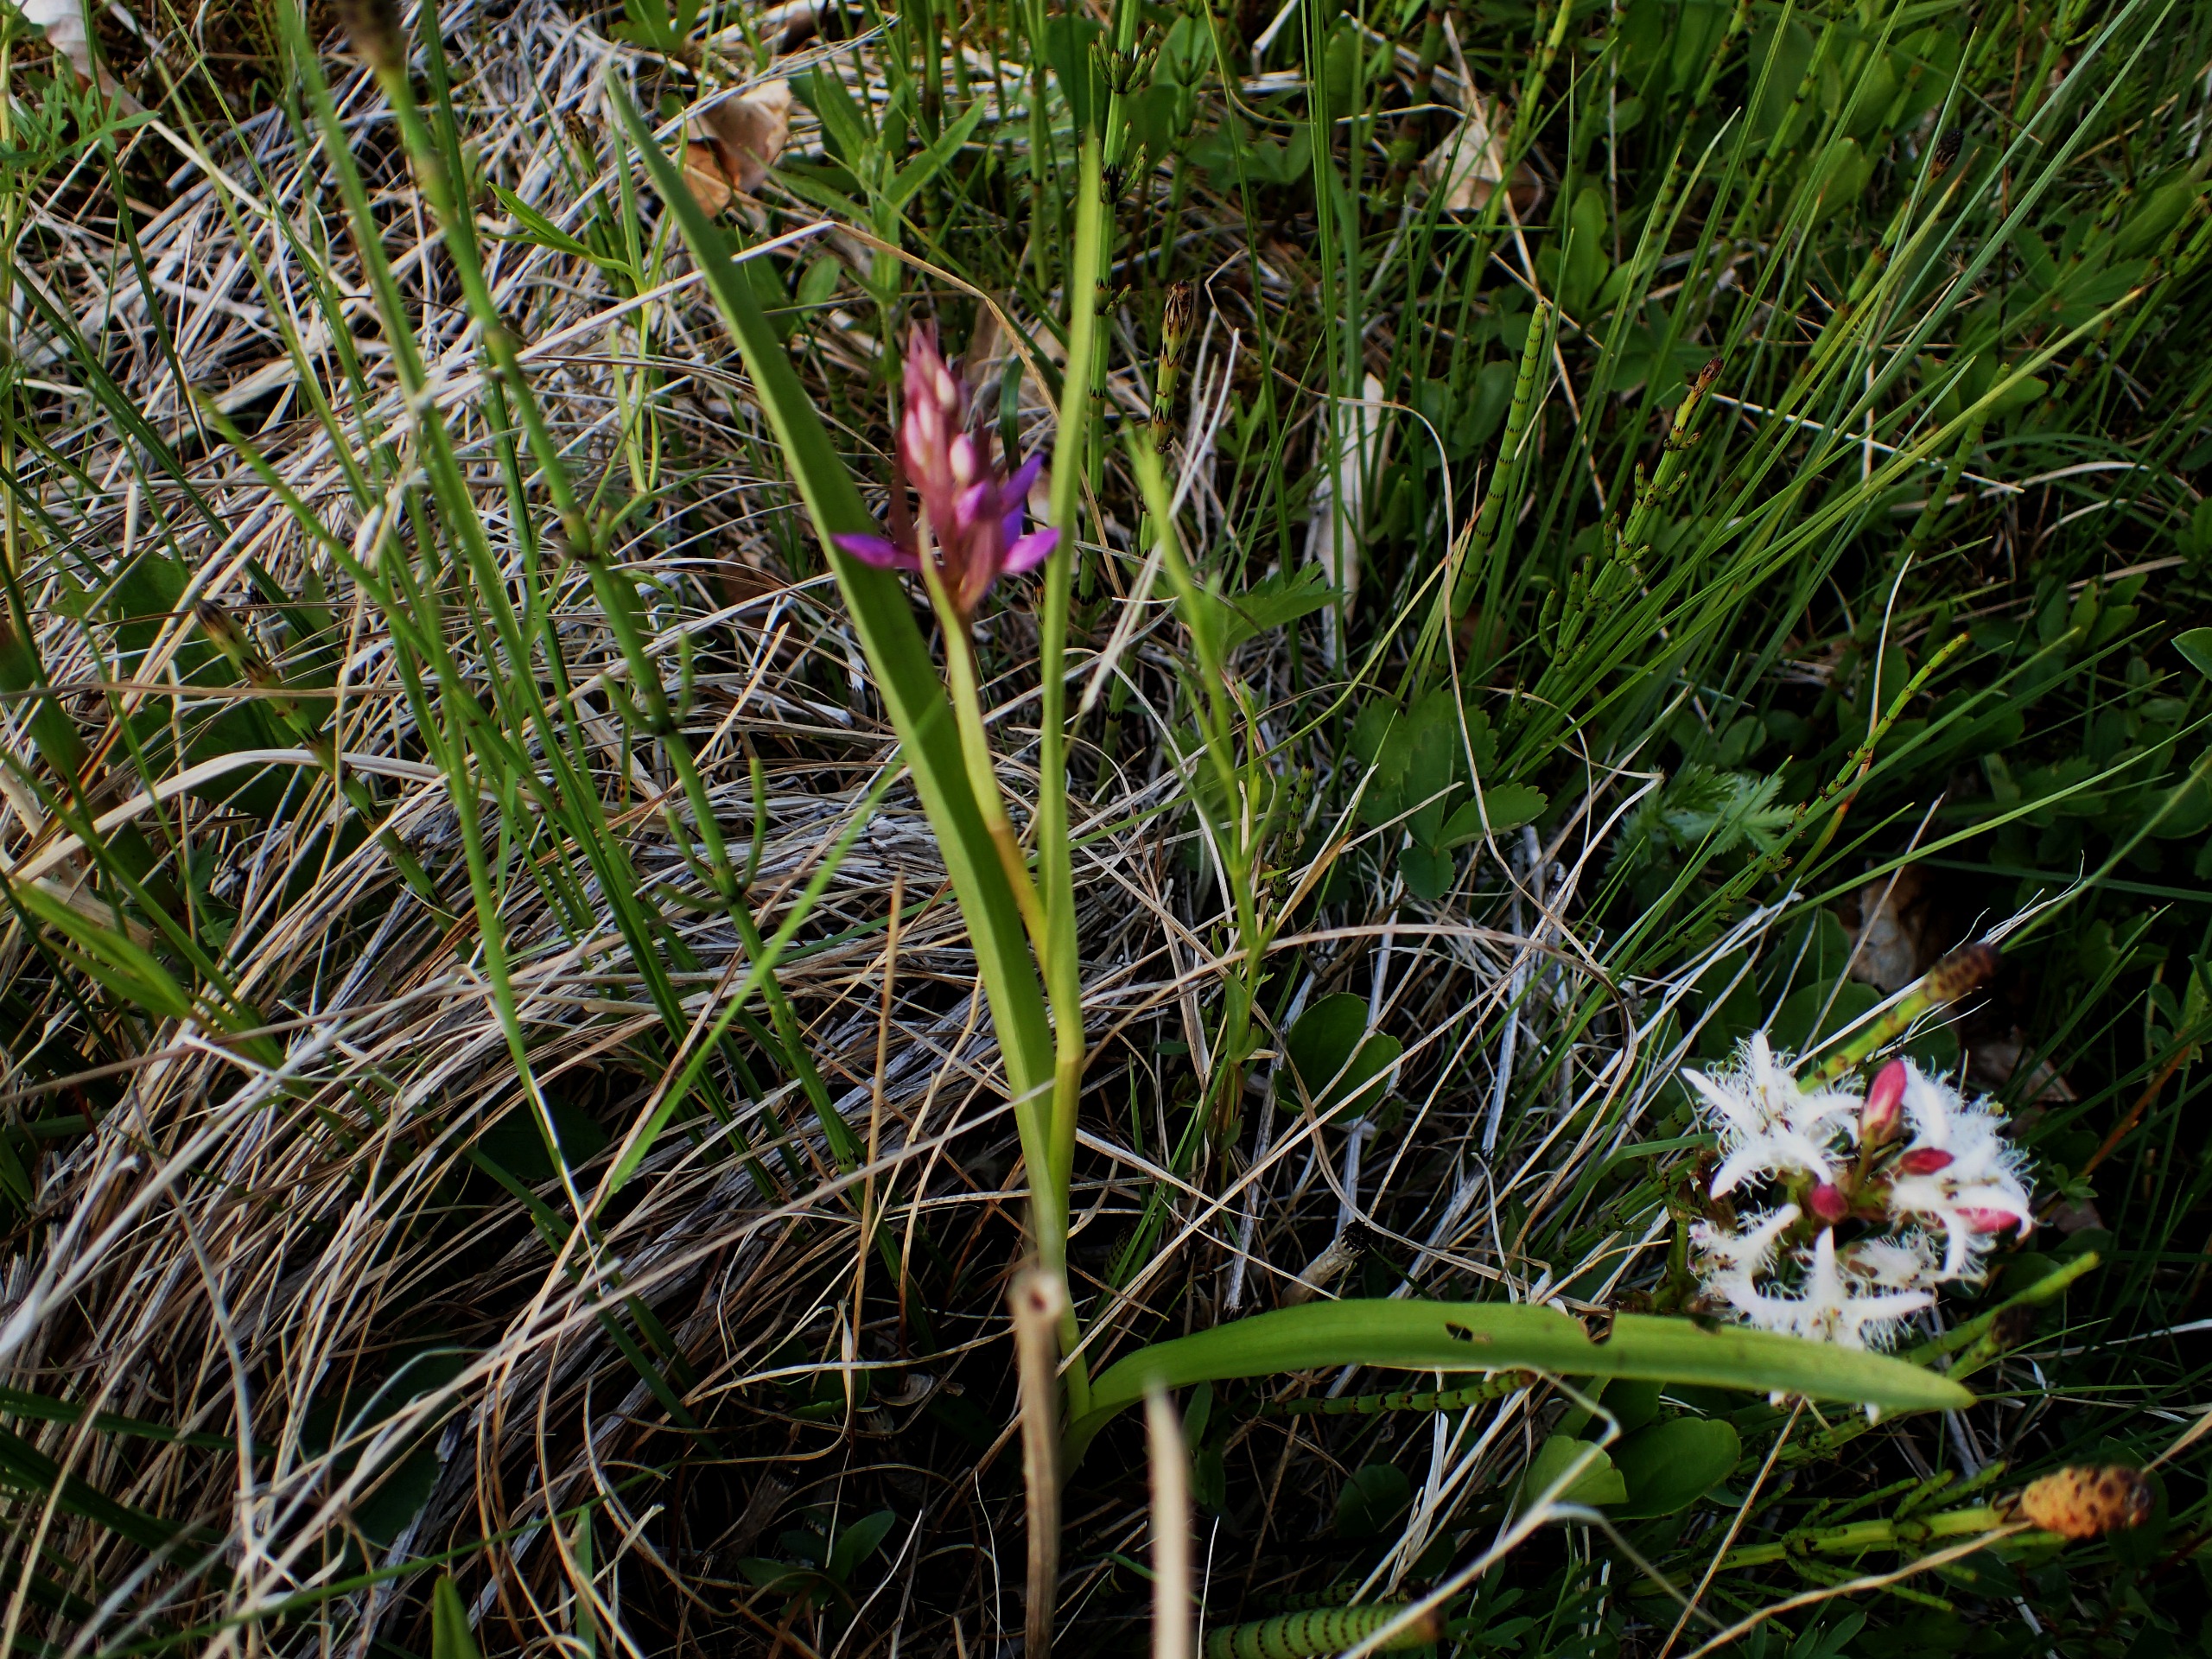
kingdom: Plantae
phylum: Tracheophyta
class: Liliopsida
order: Asparagales
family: Orchidaceae
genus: Dactylorhiza
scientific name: Dactylorhiza incarnata
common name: Kødfarvet gøgeurt
